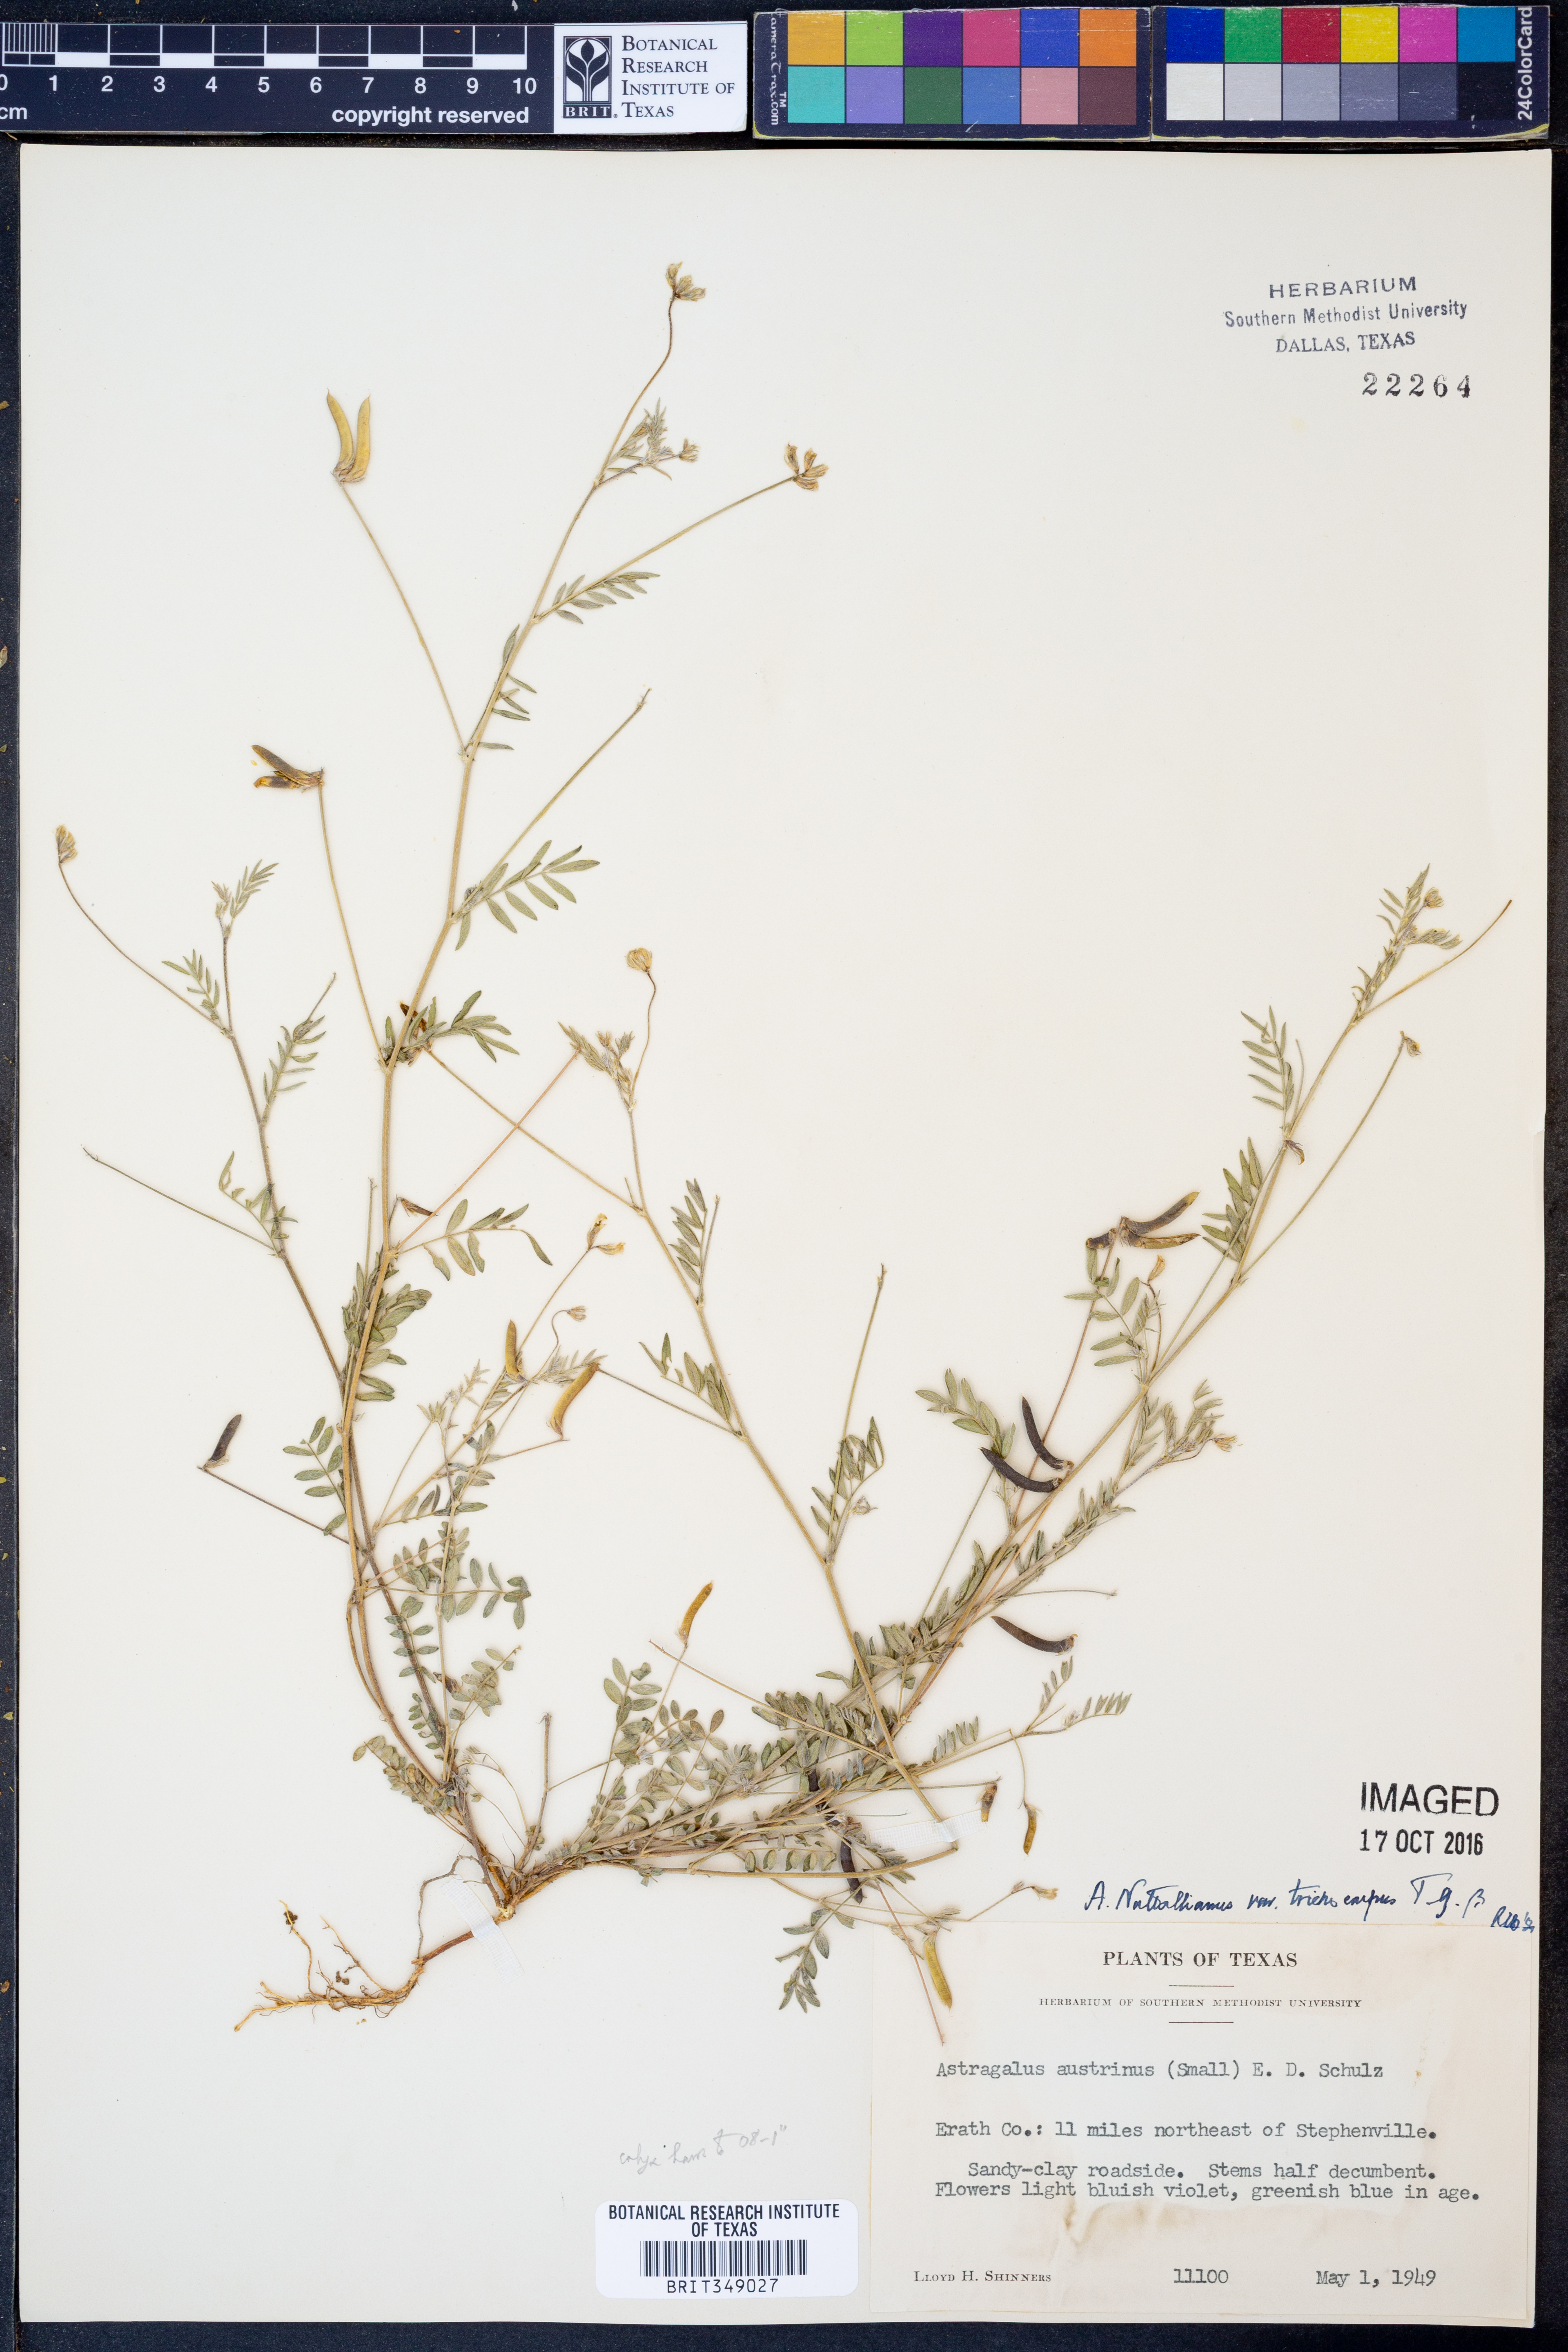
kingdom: Plantae
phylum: Tracheophyta
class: Magnoliopsida
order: Fabales
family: Fabaceae
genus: Astragalus
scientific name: Astragalus nuttallianus
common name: Smallflowered milkvetch
